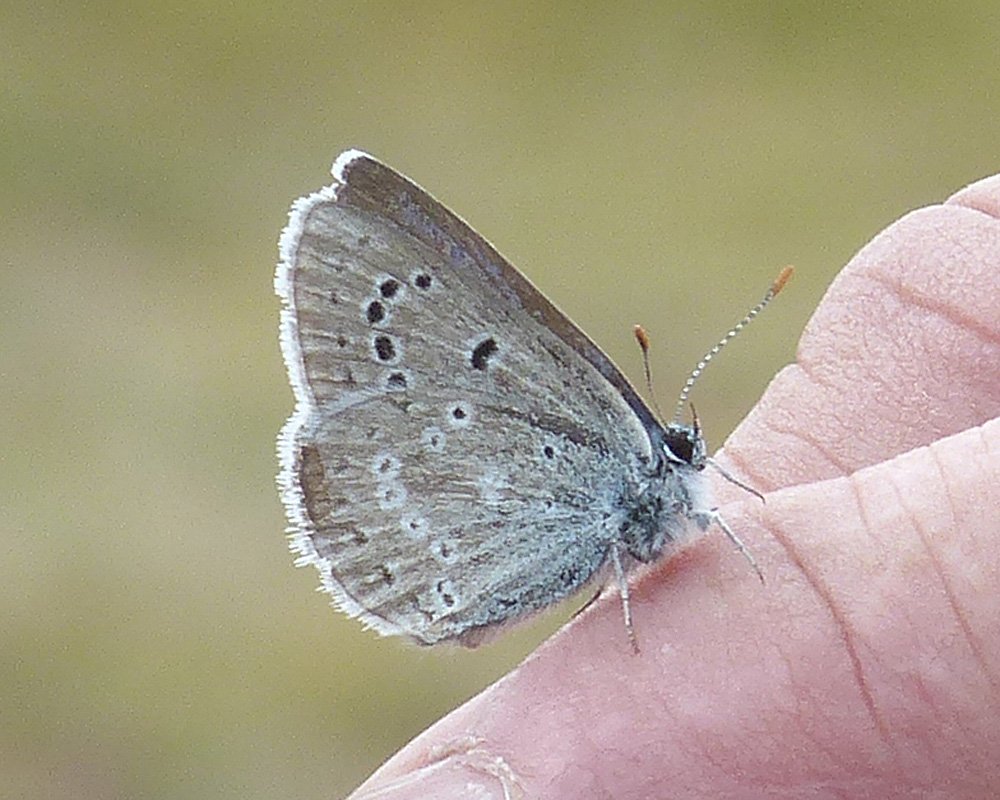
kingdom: Animalia
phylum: Arthropoda
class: Insecta
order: Lepidoptera
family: Lycaenidae
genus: Icaricia
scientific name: Icaricia icarioides
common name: Boisduval's Blue
